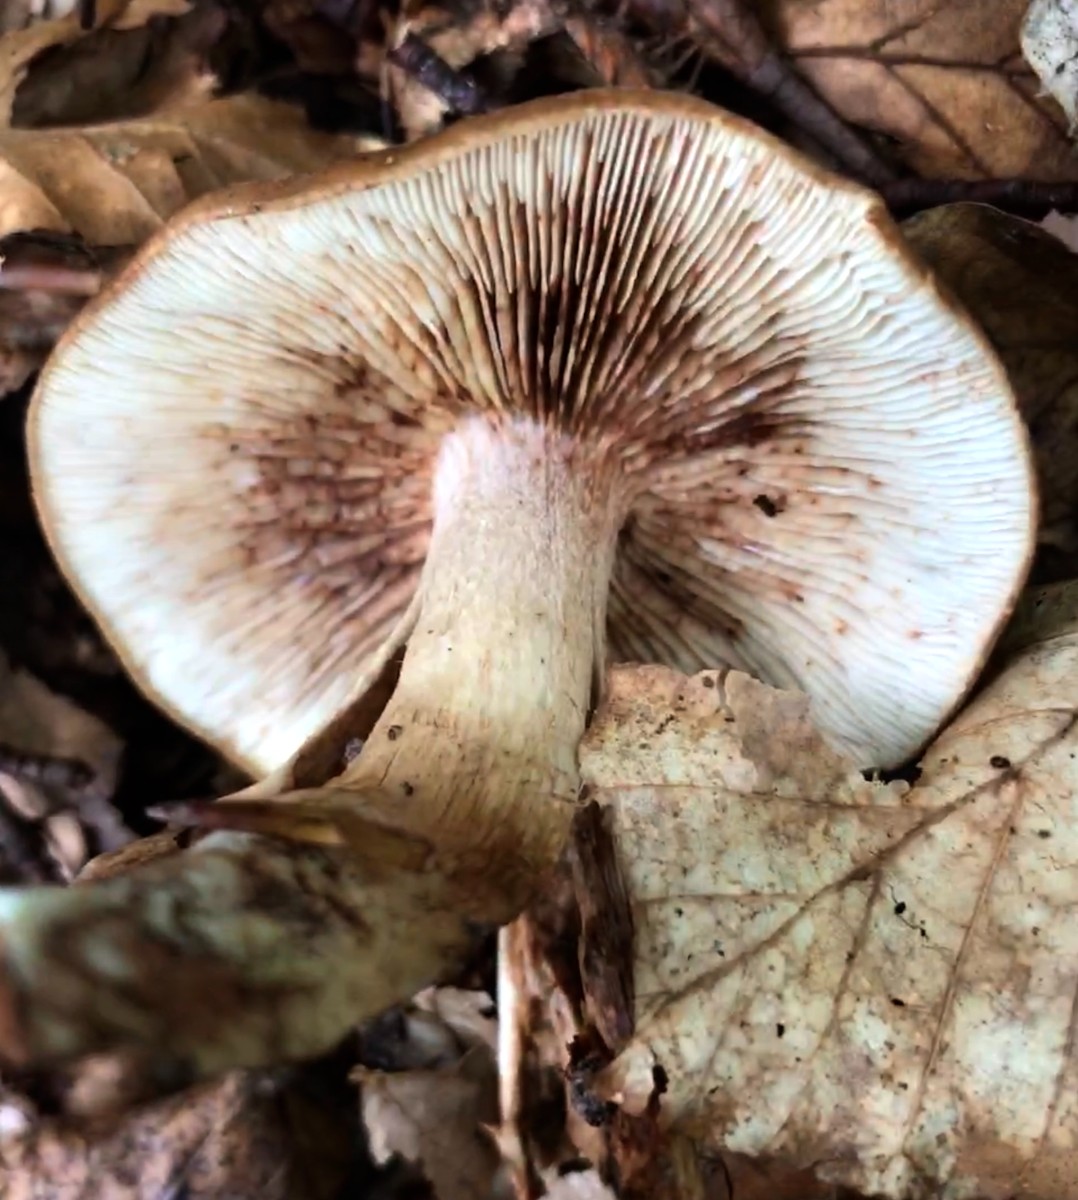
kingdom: Fungi
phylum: Basidiomycota
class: Agaricomycetes
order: Agaricales
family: Tricholomataceae
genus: Tricholoma
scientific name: Tricholoma ustale
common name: sveden ridderhat
